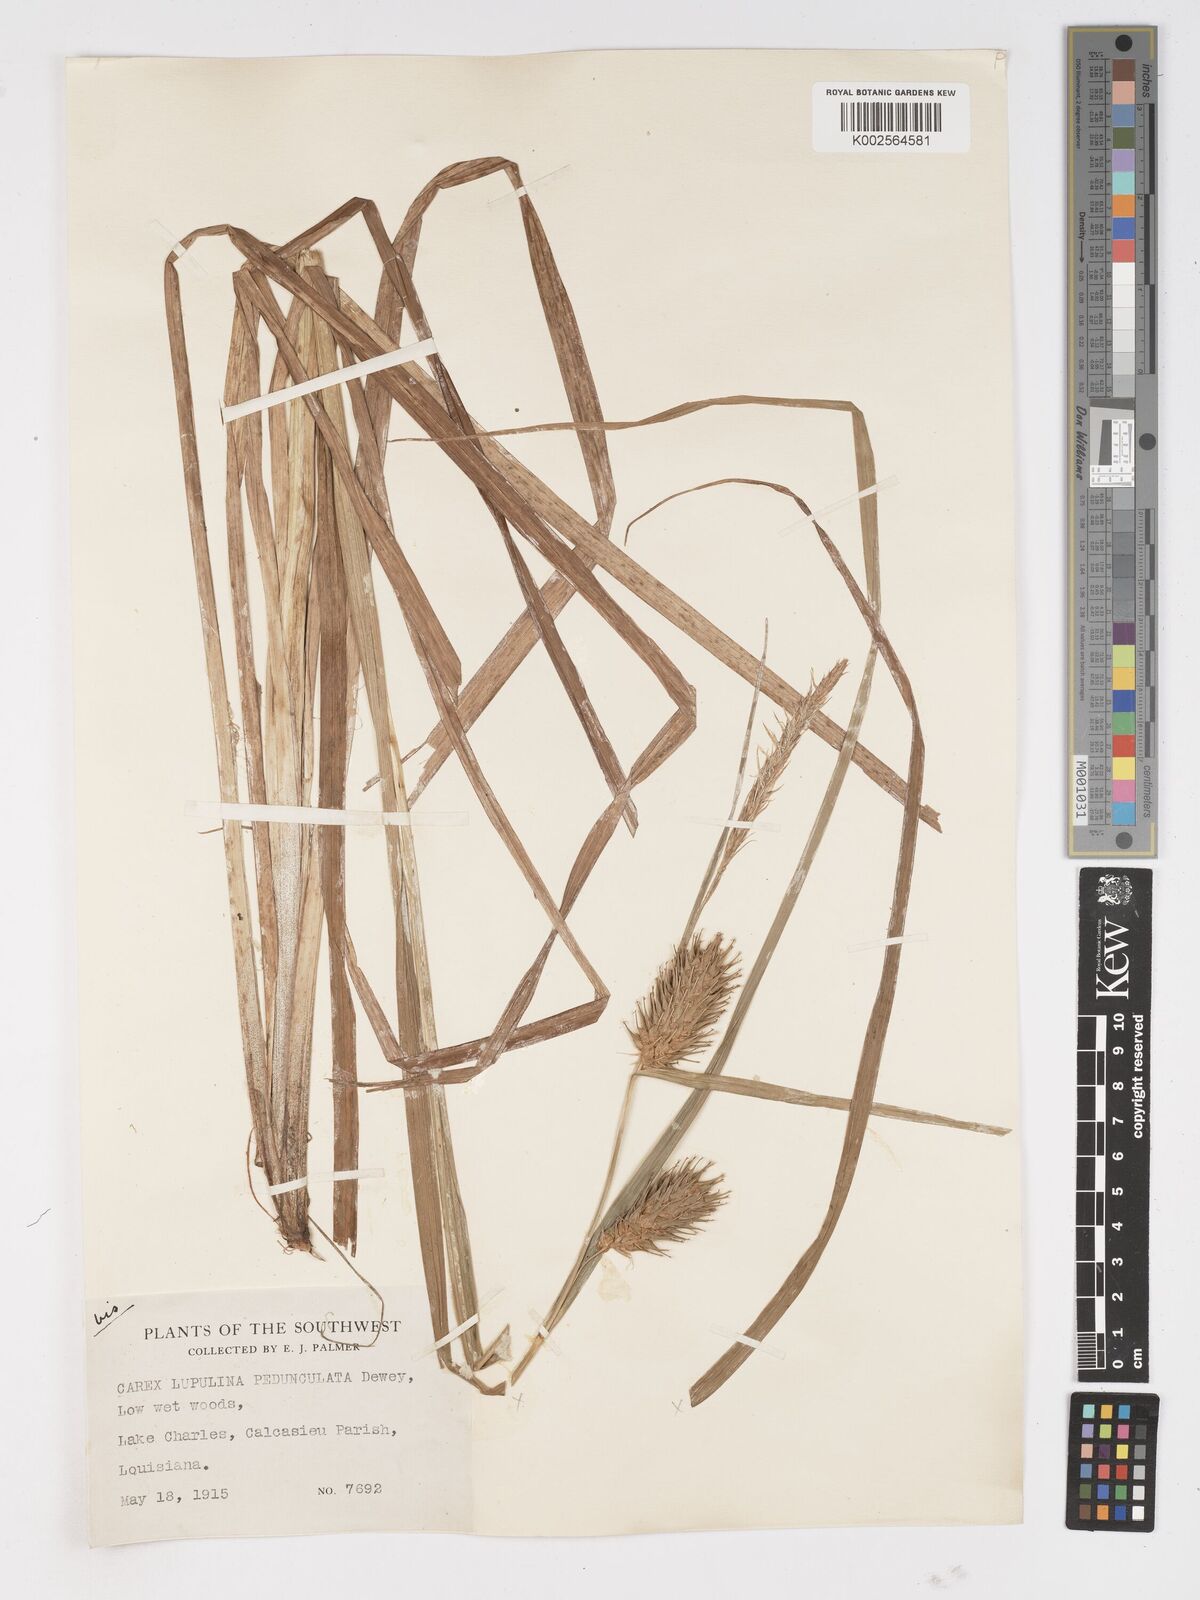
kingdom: Plantae
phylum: Tracheophyta
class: Liliopsida
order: Poales
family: Cyperaceae
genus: Carex
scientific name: Carex lupulina
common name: Hop sedge
